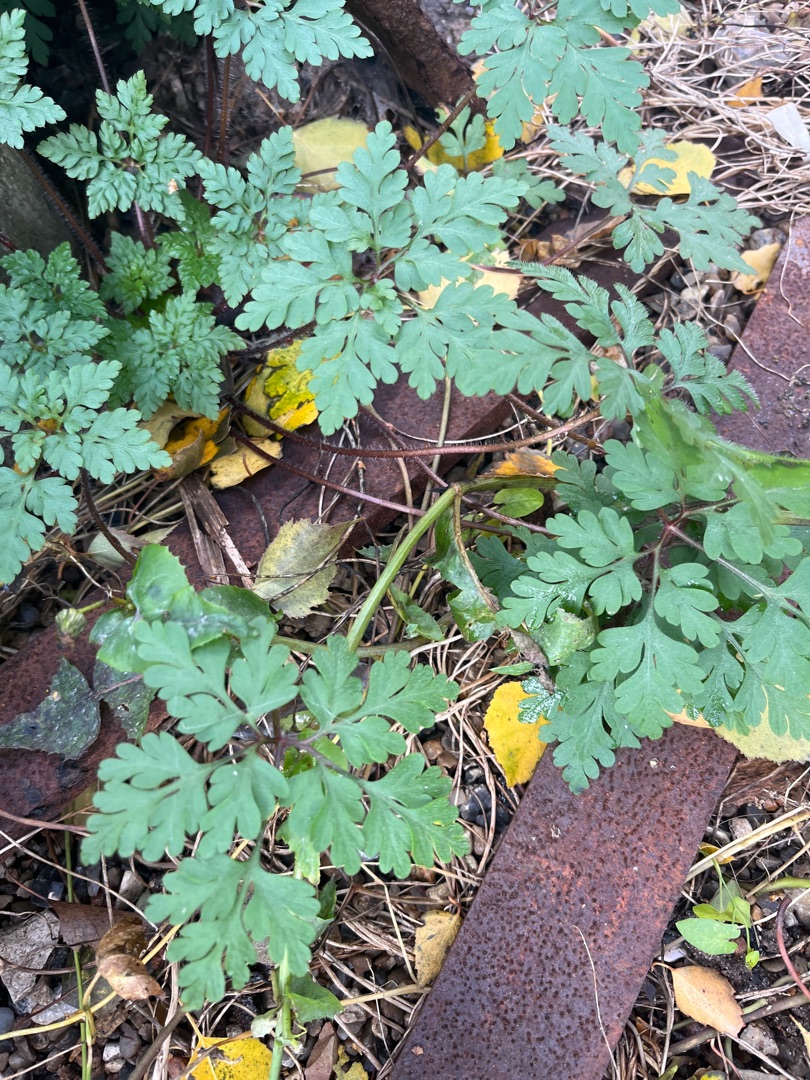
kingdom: Plantae
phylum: Tracheophyta
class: Magnoliopsida
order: Geraniales
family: Geraniaceae
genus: Geranium
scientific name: Geranium robertianum
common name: Stinkende storkenæb
